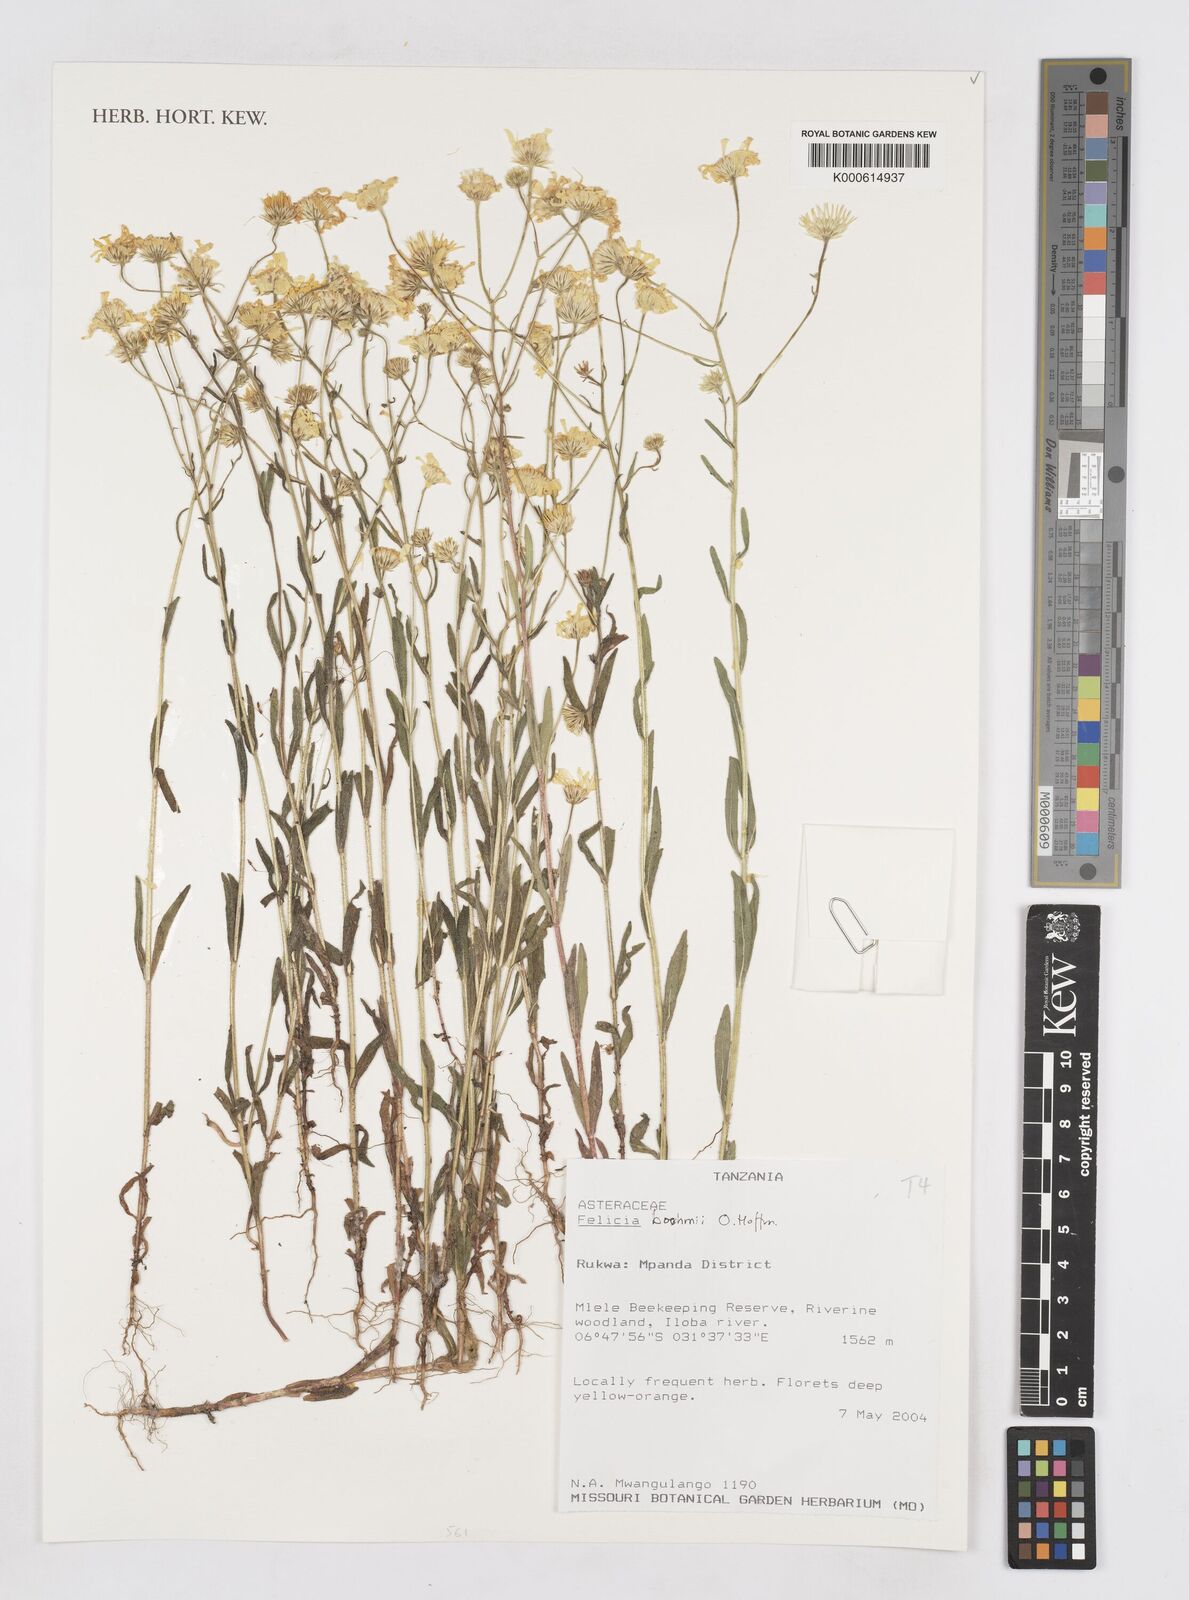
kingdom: Plantae
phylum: Tracheophyta
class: Magnoliopsida
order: Asterales
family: Asteraceae
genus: Felicia
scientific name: Felicia boehmii
